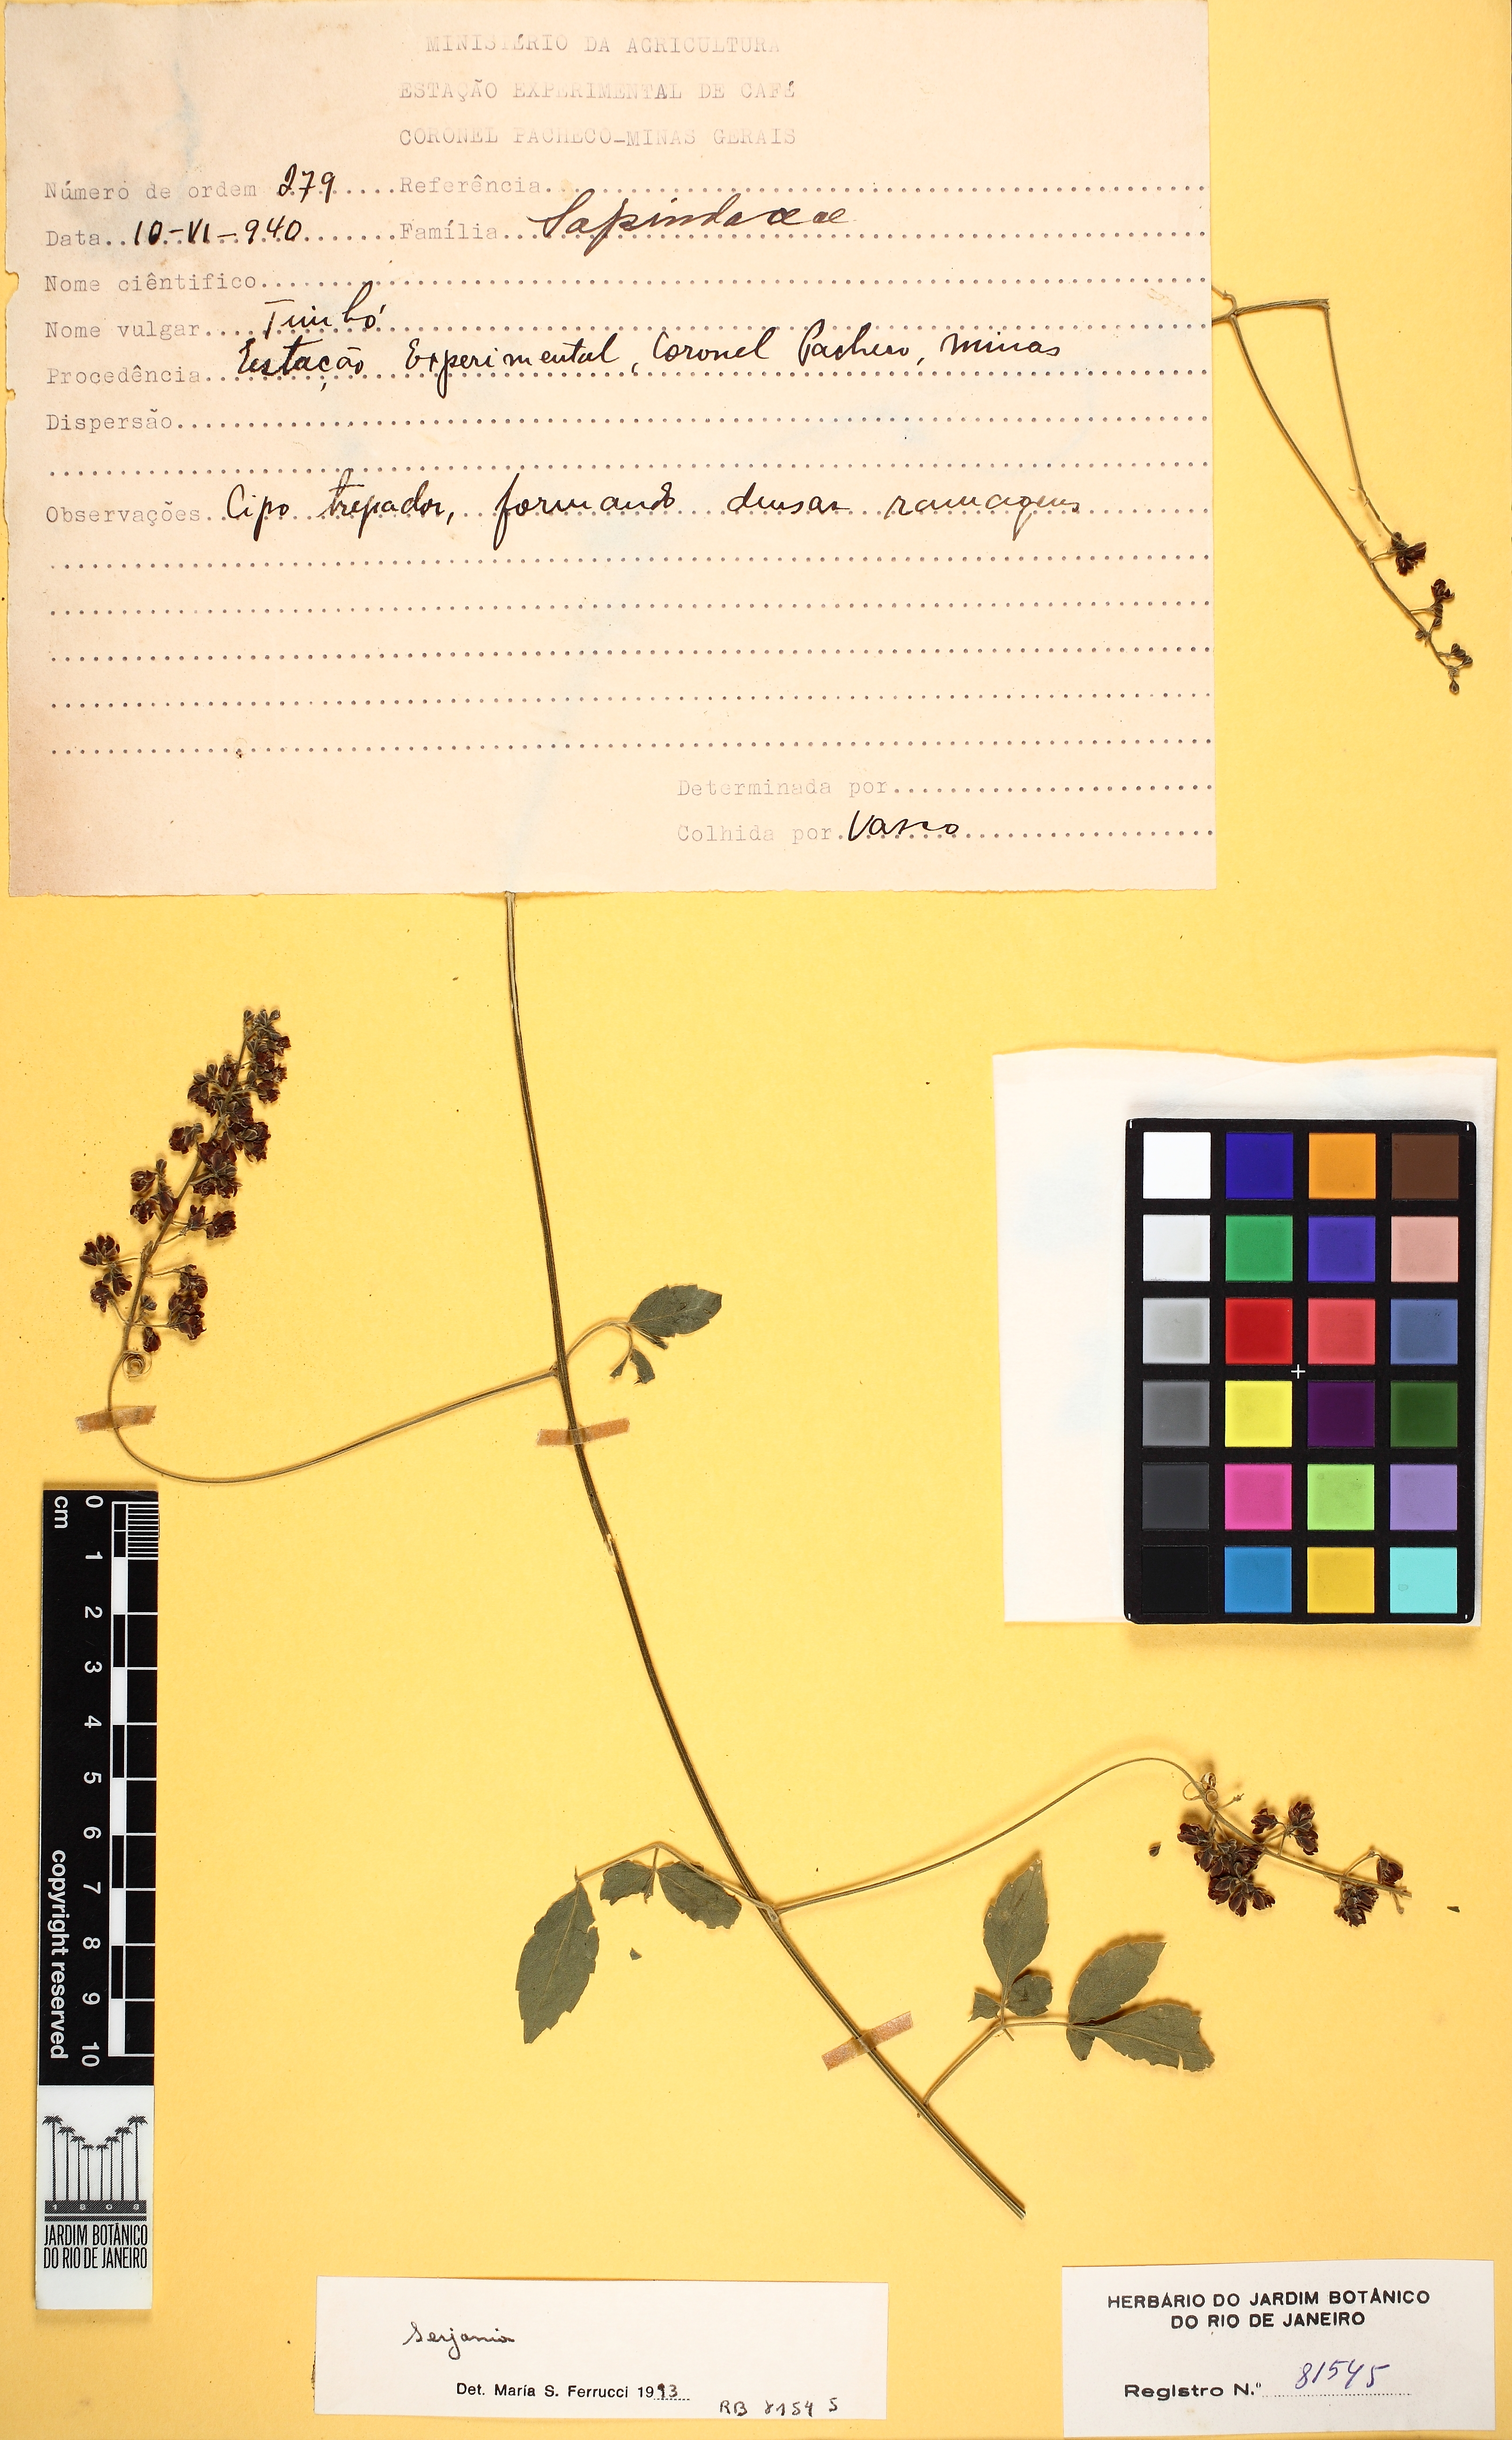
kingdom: Plantae
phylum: Tracheophyta
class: Magnoliopsida
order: Sapindales
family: Sapindaceae
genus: Cardiospermum
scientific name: Cardiospermum grandiflorum
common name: Balloon vine
